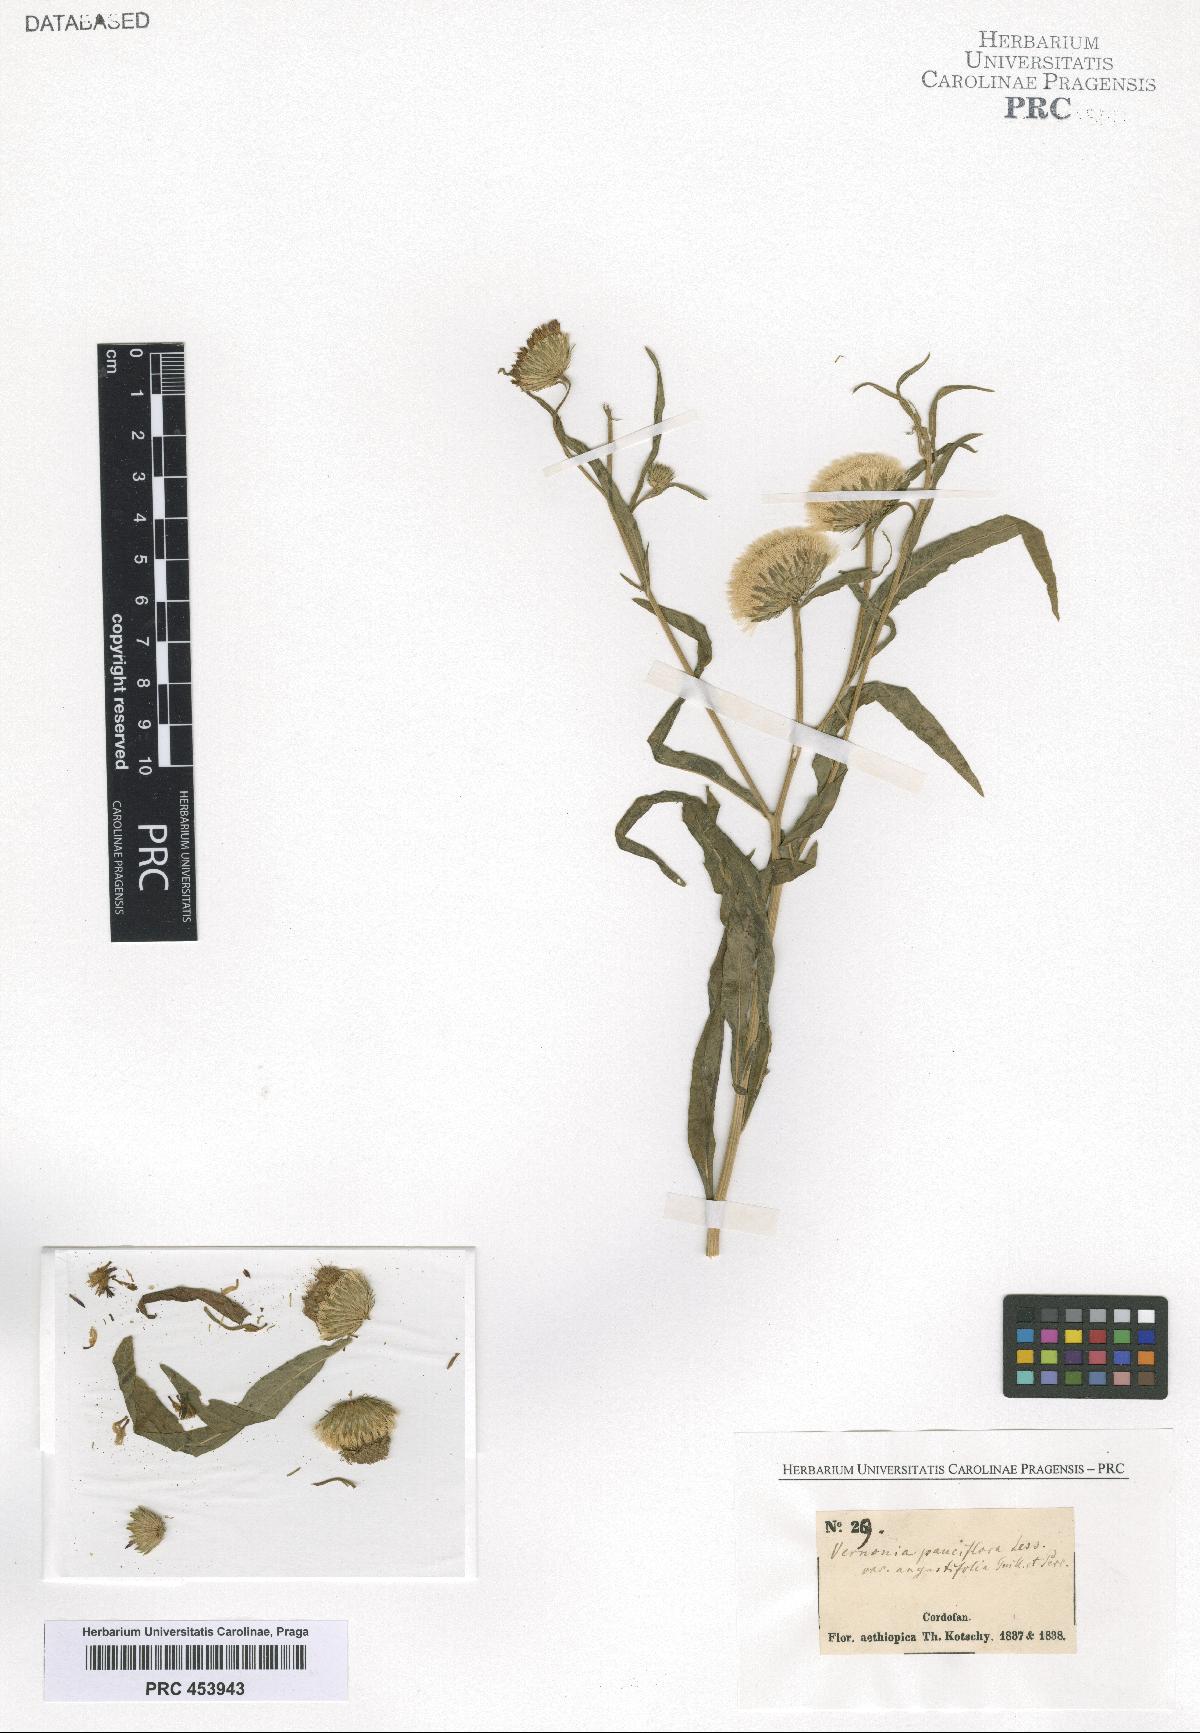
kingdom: Plantae
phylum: Tracheophyta
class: Magnoliopsida
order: Asterales
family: Asteraceae
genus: Vernonia
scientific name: Vernonia pauciflora
